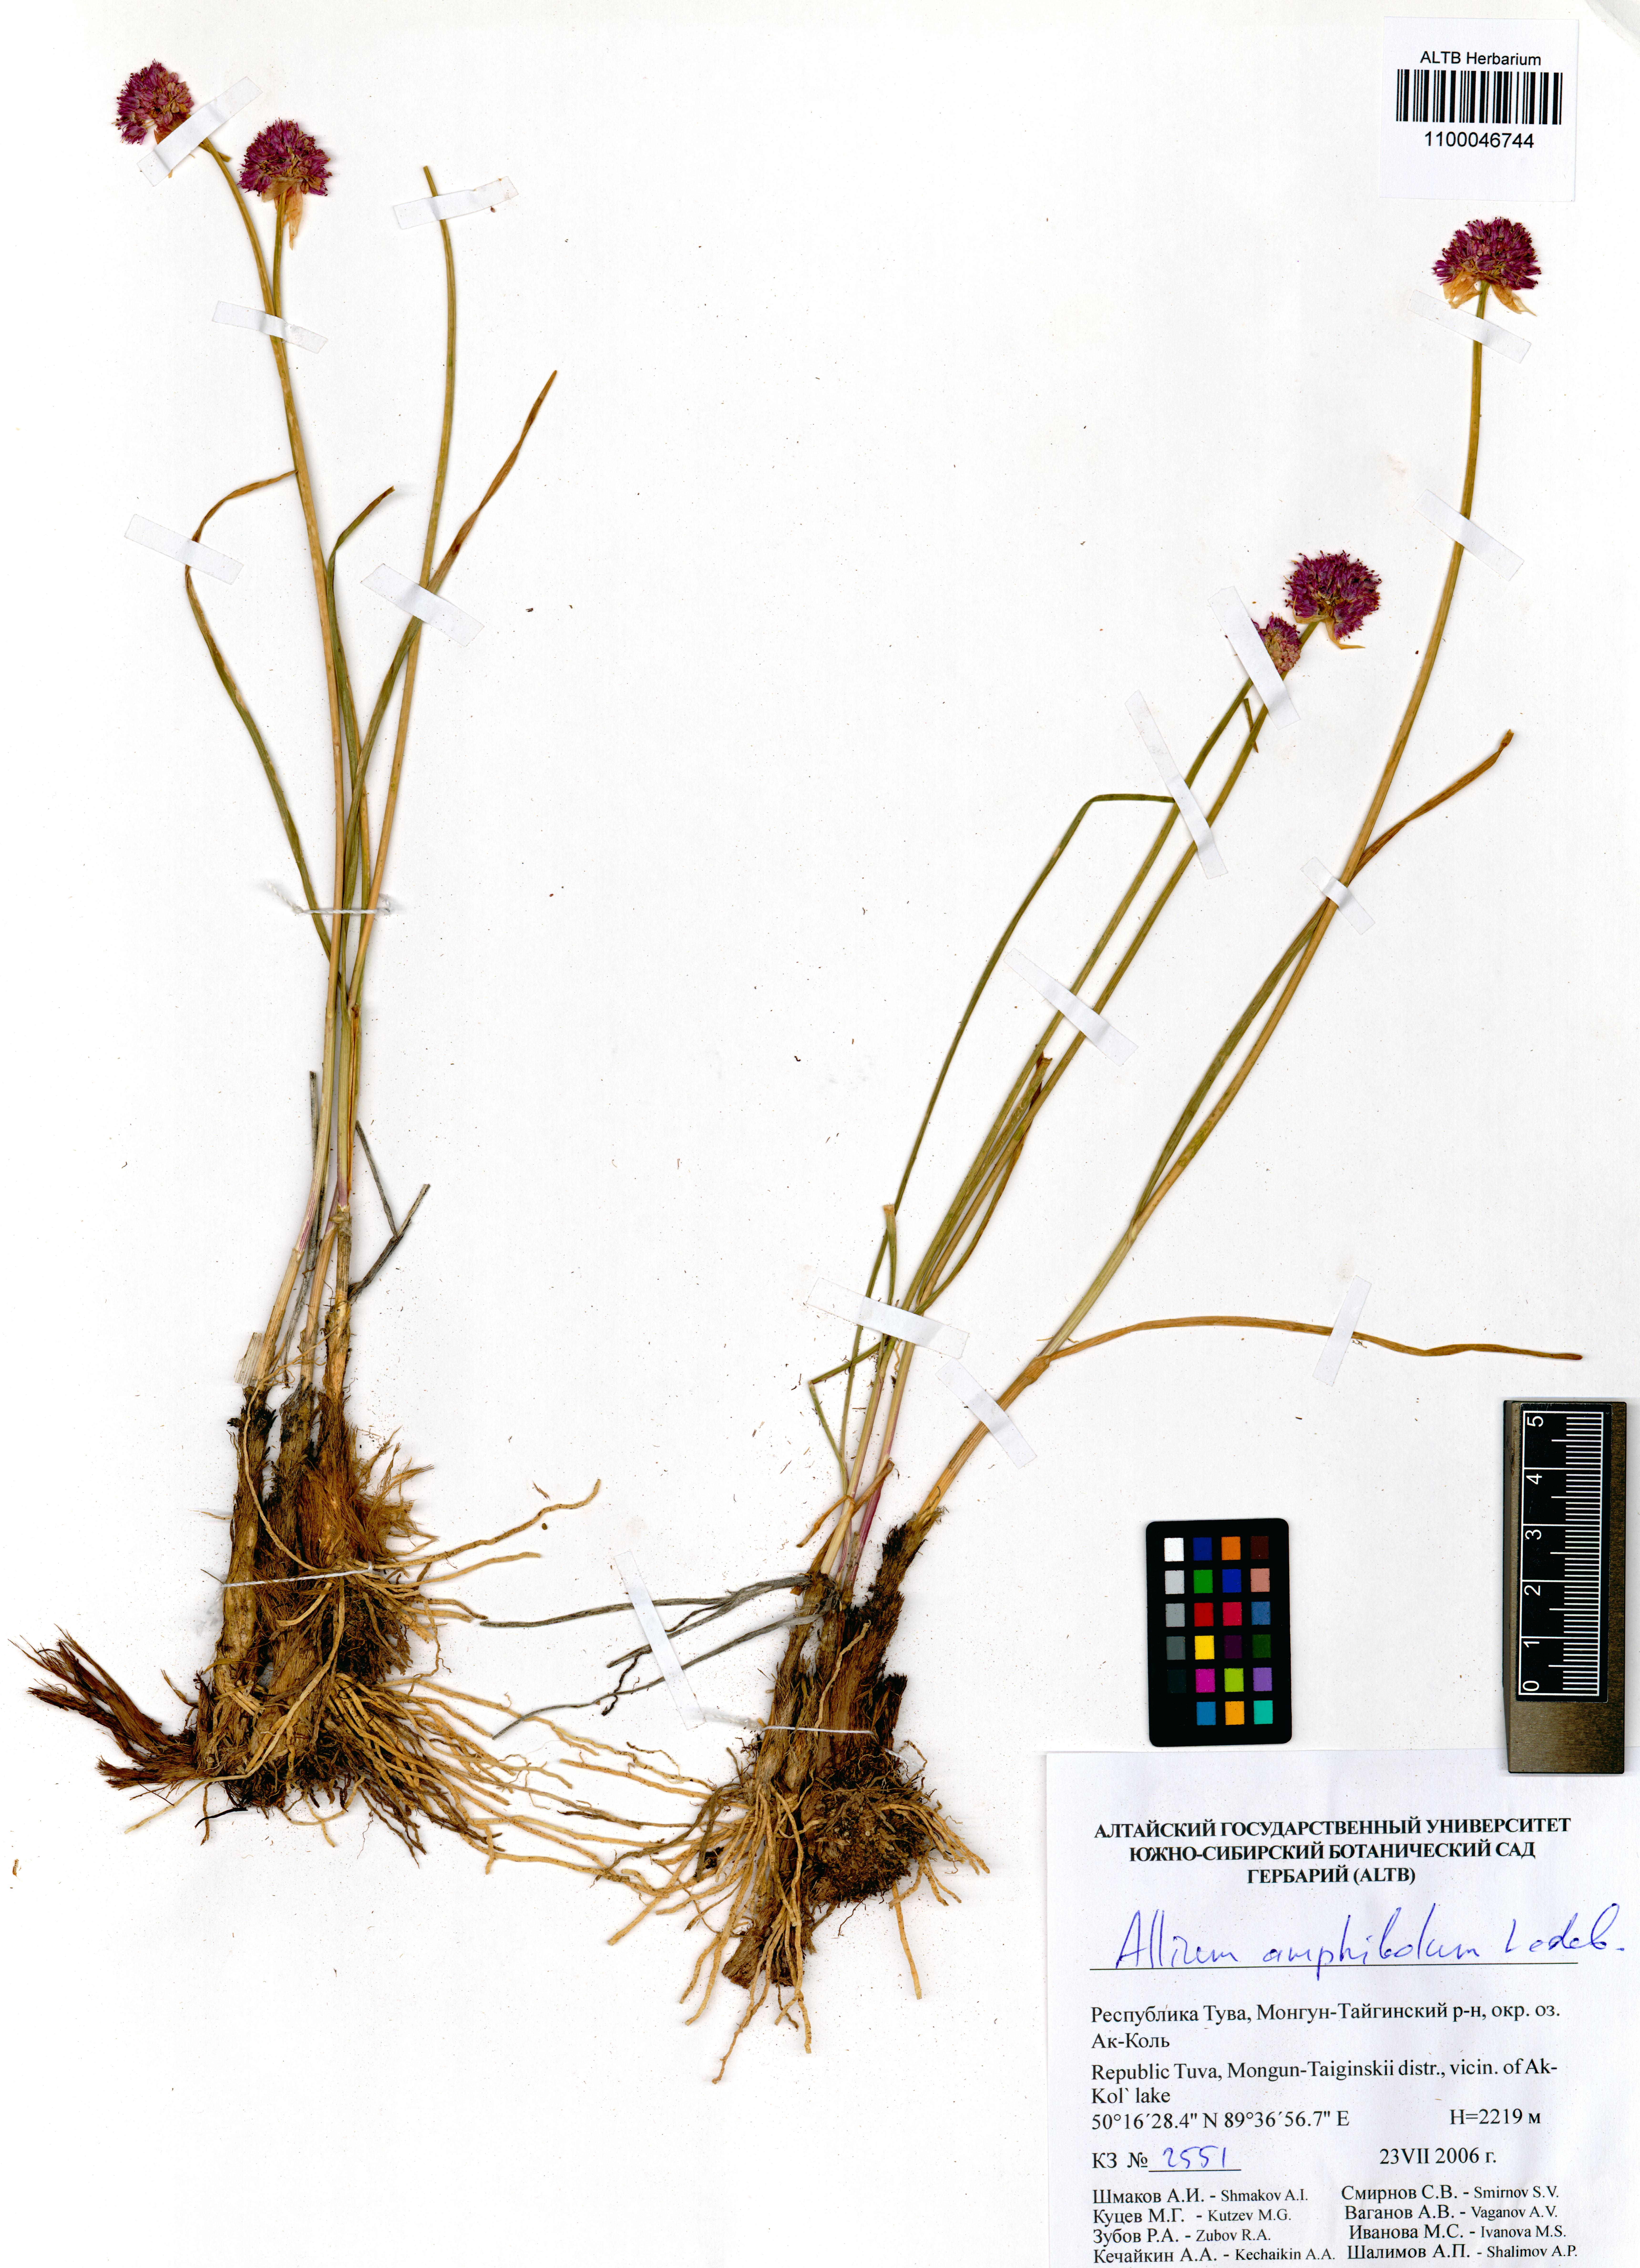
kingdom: Plantae
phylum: Tracheophyta
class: Liliopsida
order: Asparagales
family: Amaryllidaceae
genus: Allium
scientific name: Allium amphibolum
